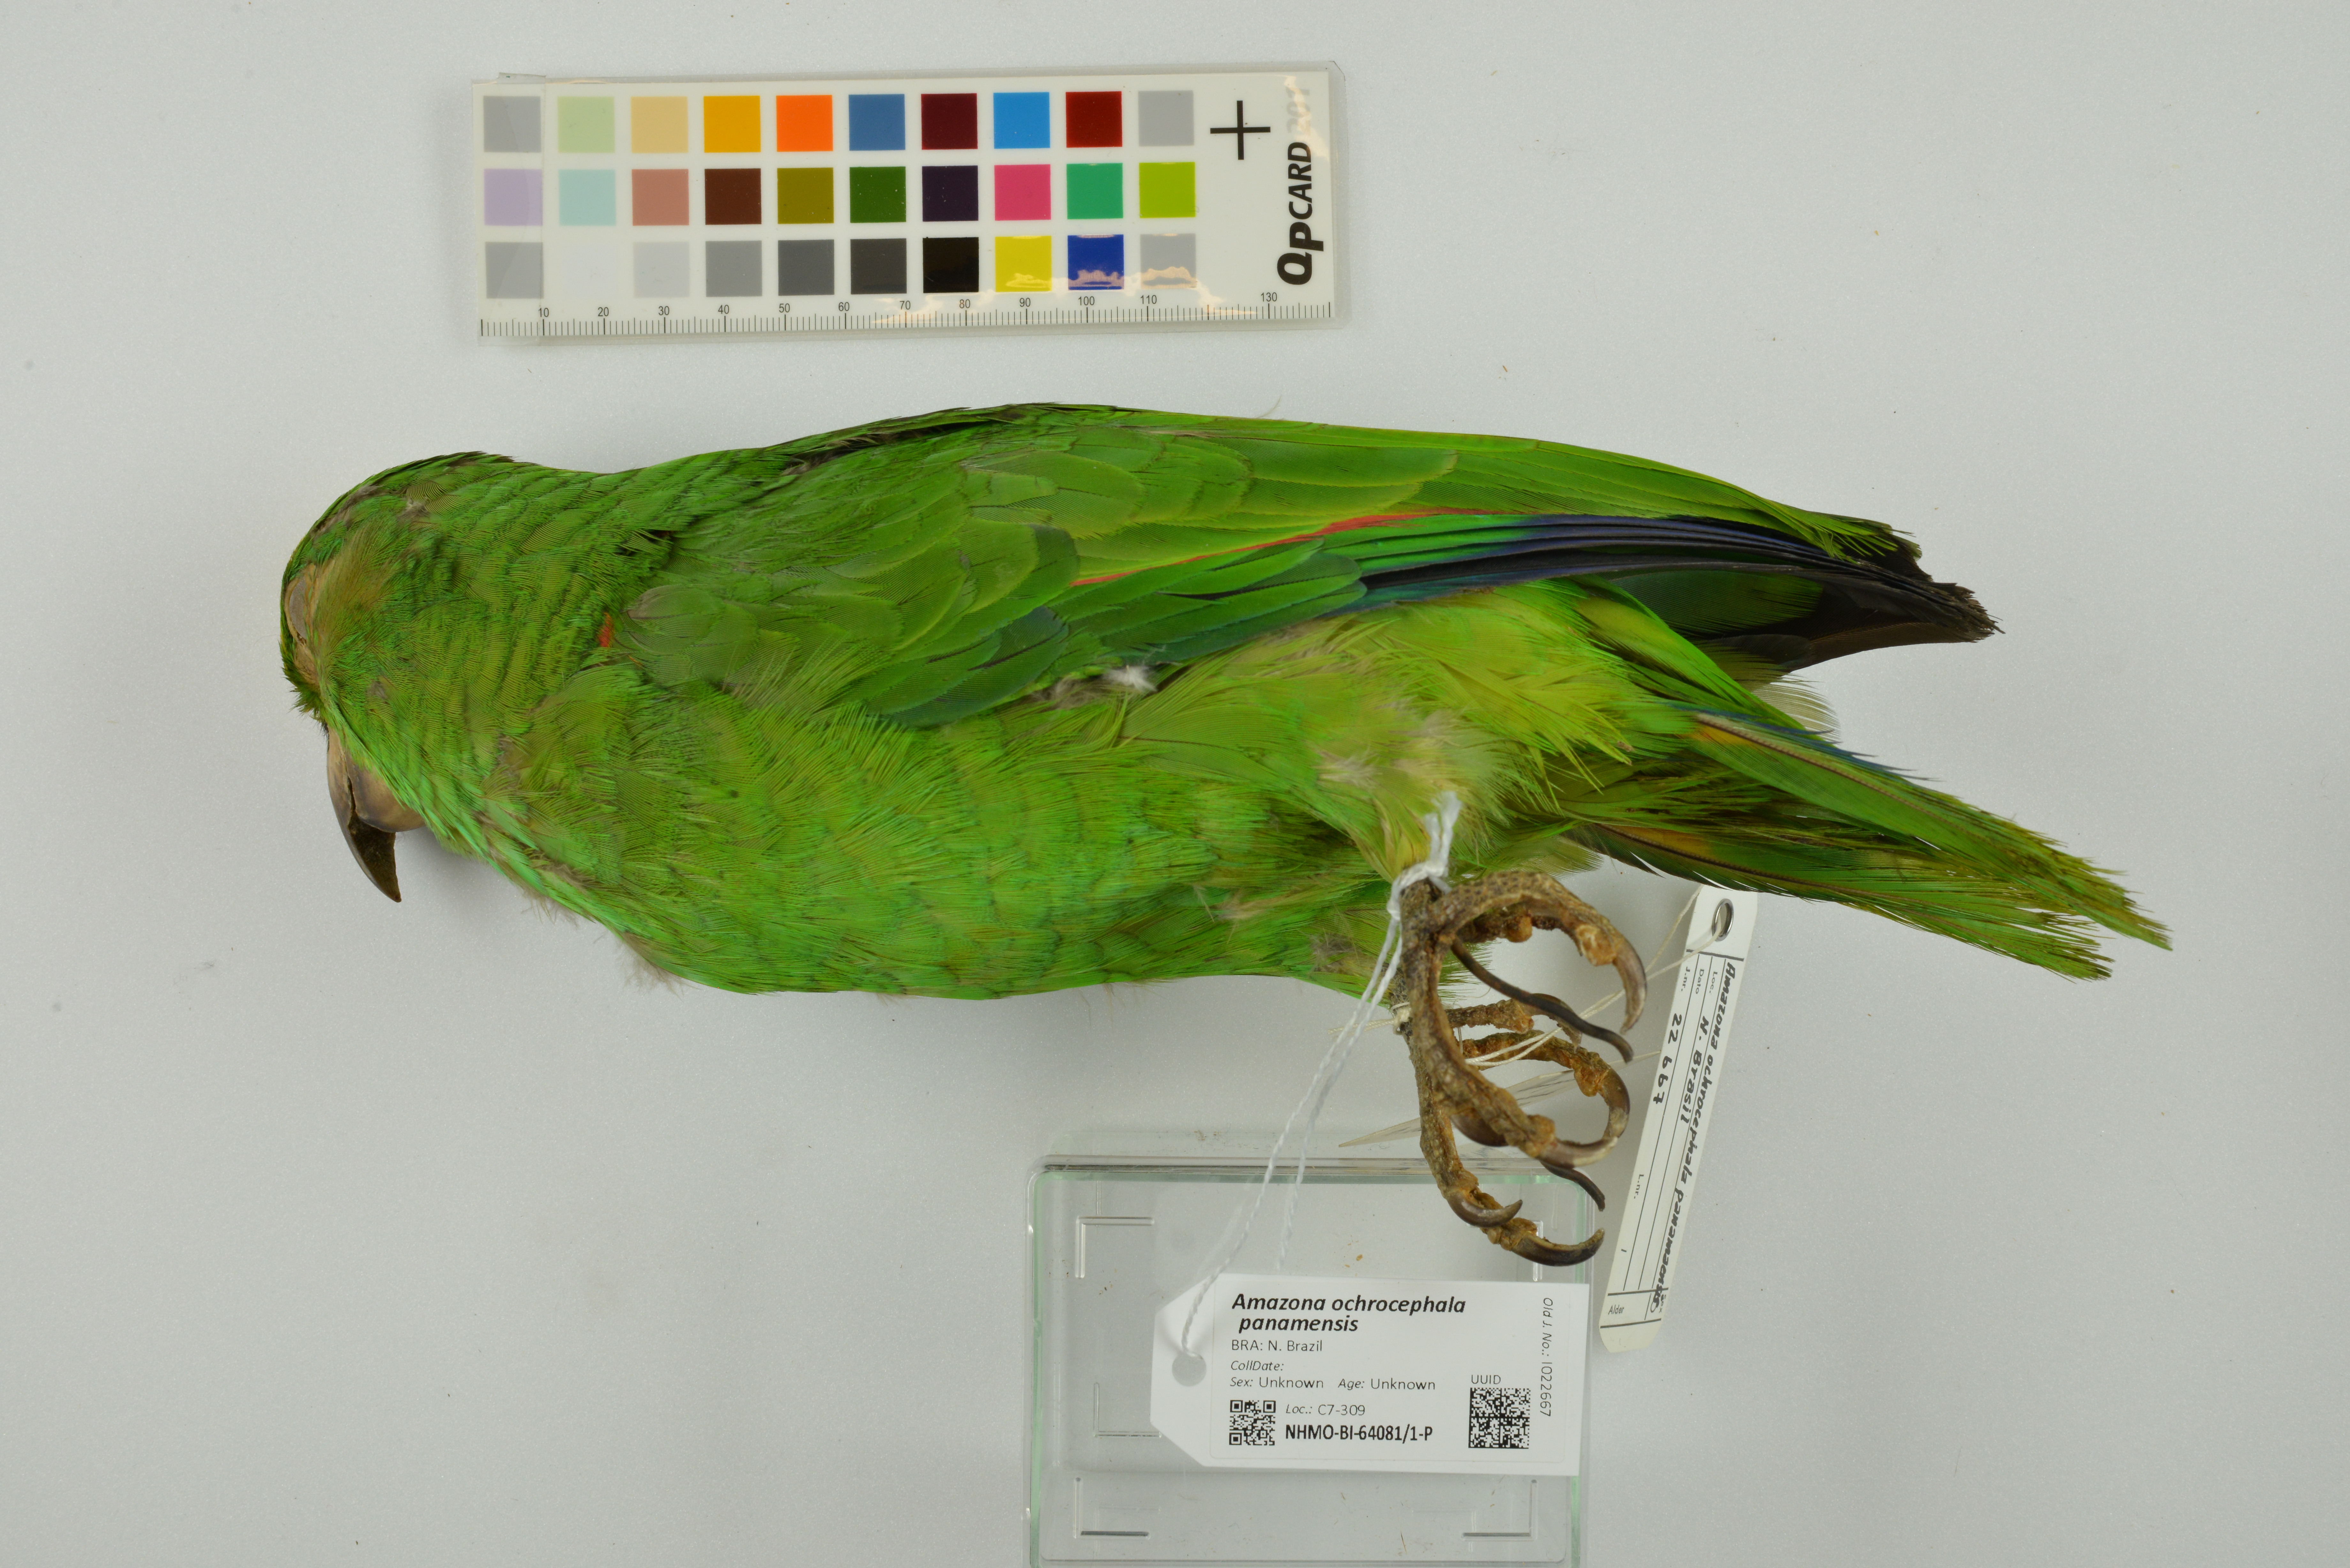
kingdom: Animalia
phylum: Chordata
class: Aves
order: Psittaciformes
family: Psittacidae
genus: Amazona
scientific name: Amazona ochrocephala
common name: Yellow-crowned amazon
